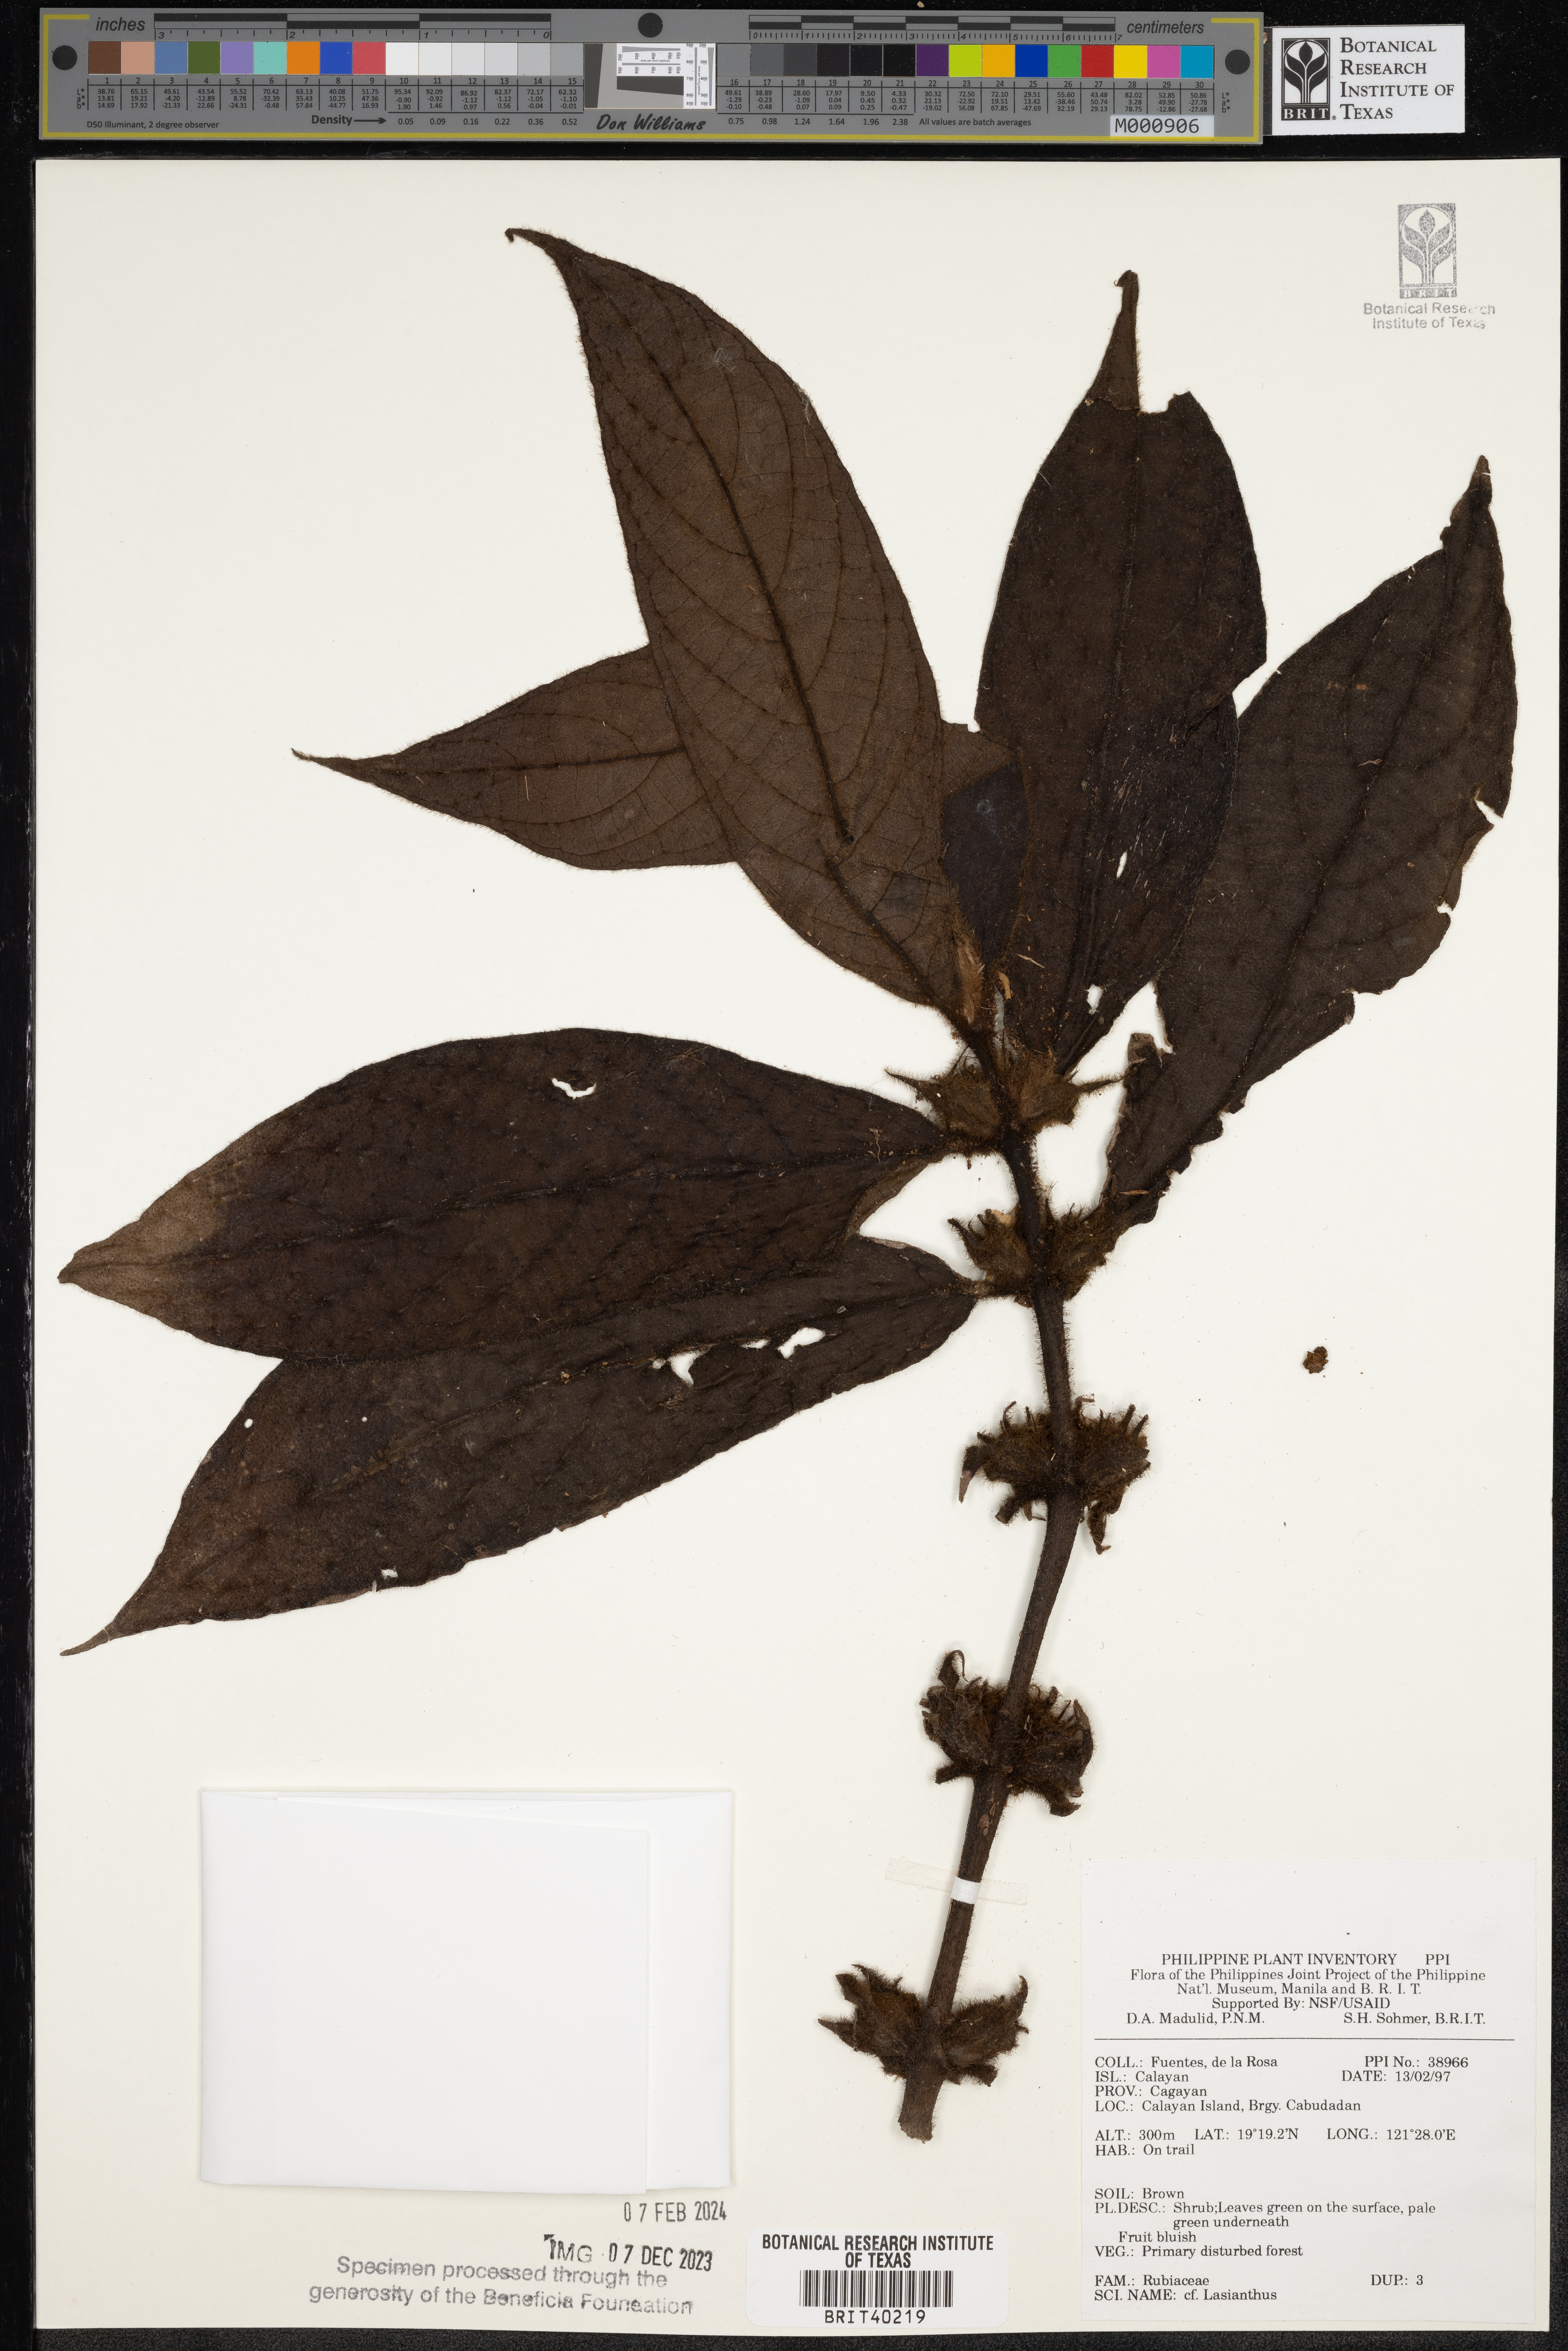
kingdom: Plantae
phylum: Tracheophyta
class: Magnoliopsida
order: Gentianales
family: Rubiaceae
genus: Lasianthus
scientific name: Lasianthus
